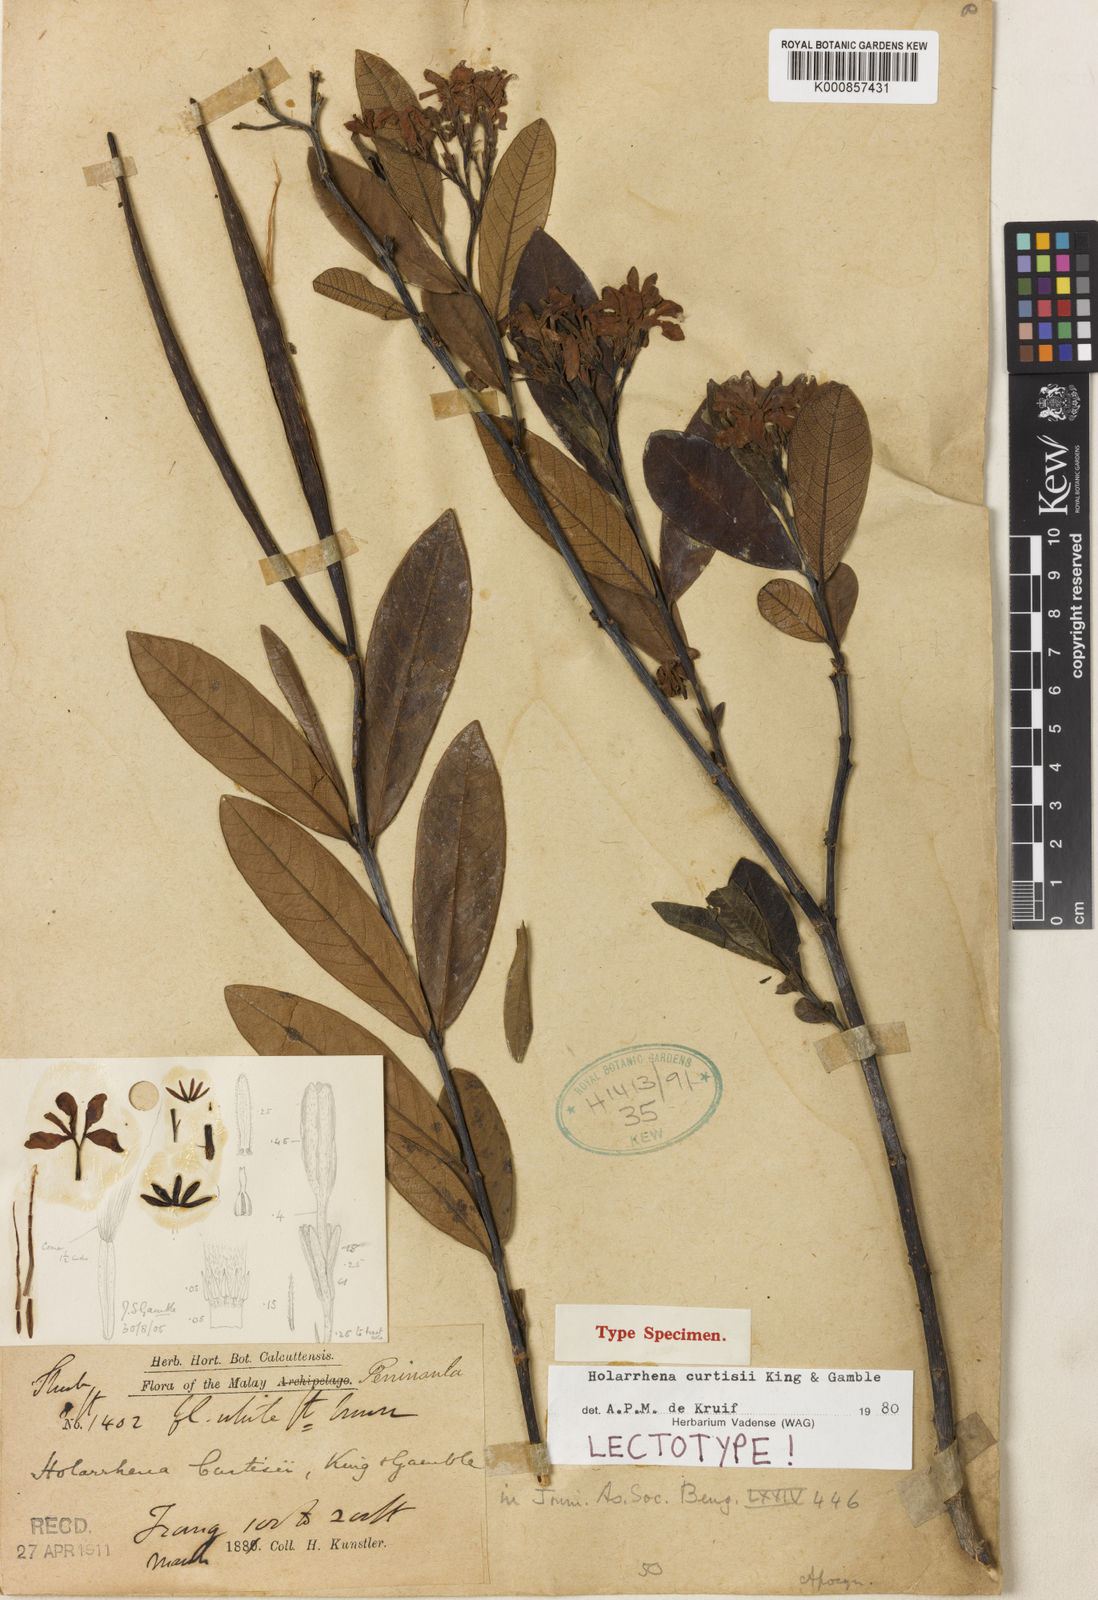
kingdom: Plantae
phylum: Tracheophyta
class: Magnoliopsida
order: Gentianales
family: Apocynaceae
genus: Holarrhena
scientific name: Holarrhena curtisii
